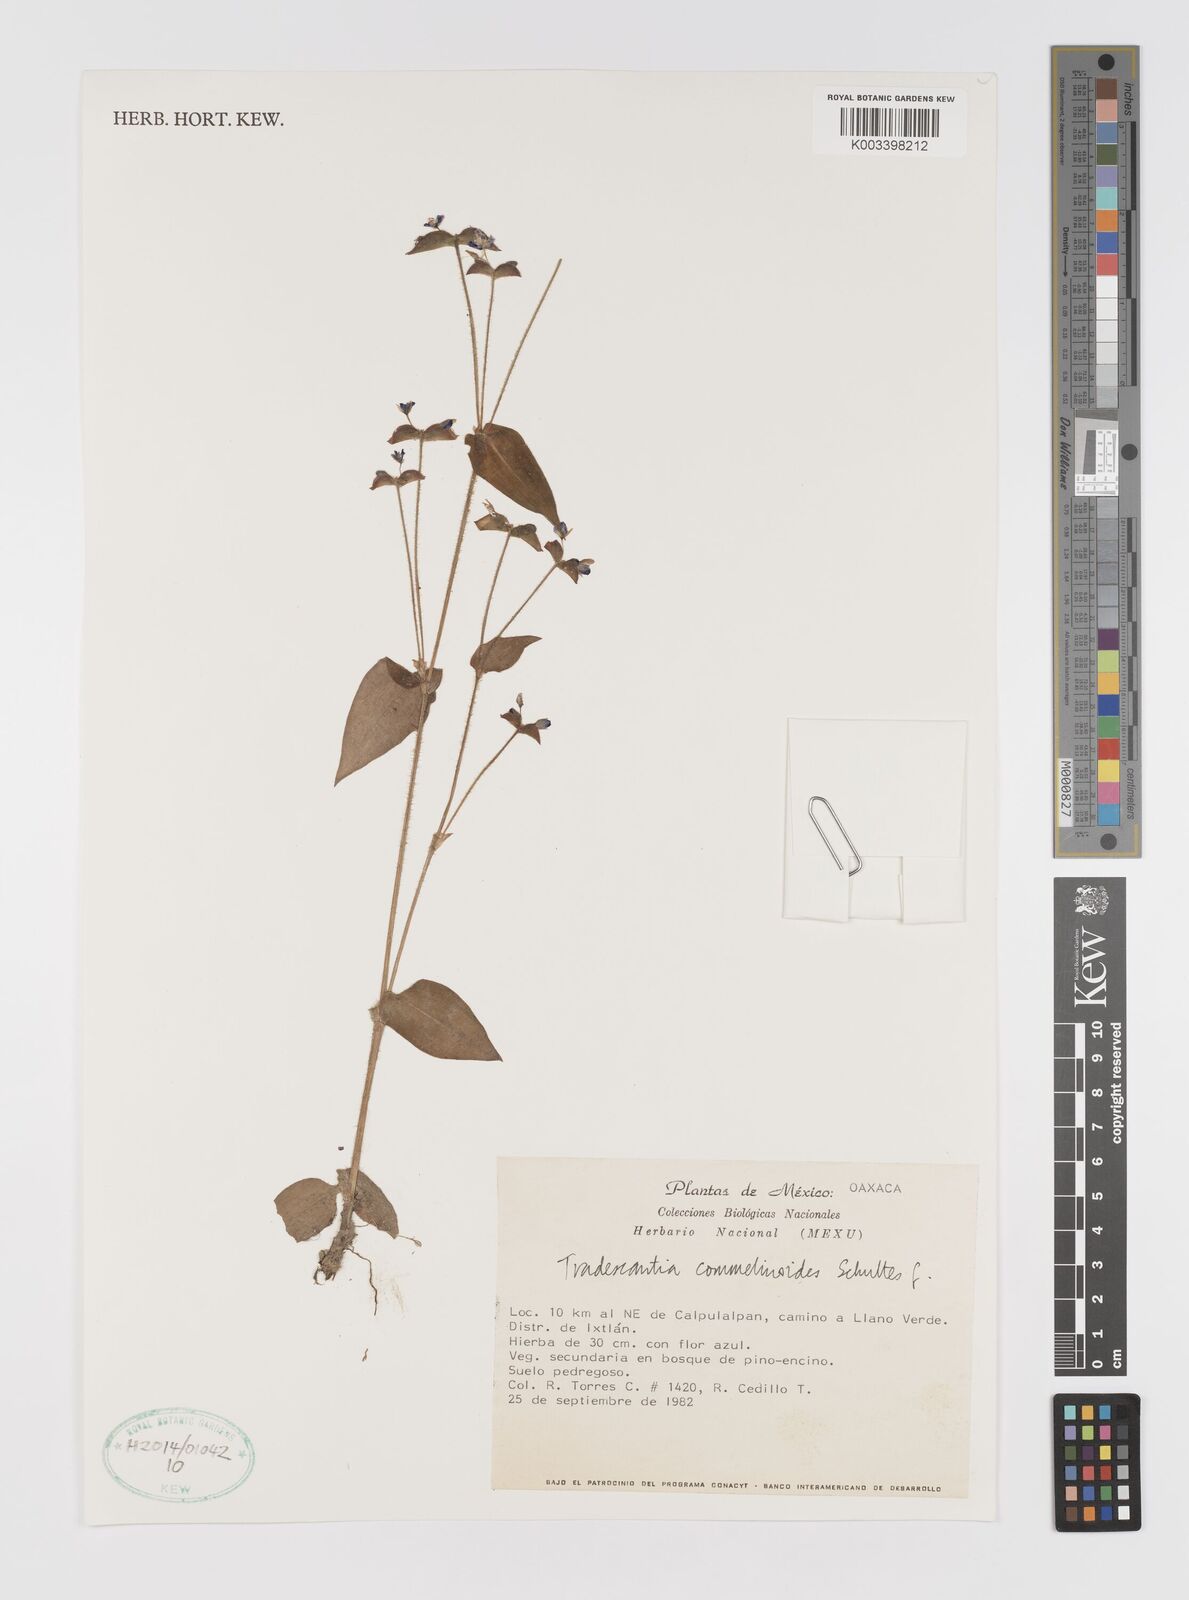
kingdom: Plantae
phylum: Tracheophyta
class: Liliopsida
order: Commelinales
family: Commelinaceae
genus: Tradescantia
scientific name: Tradescantia commelinoides
